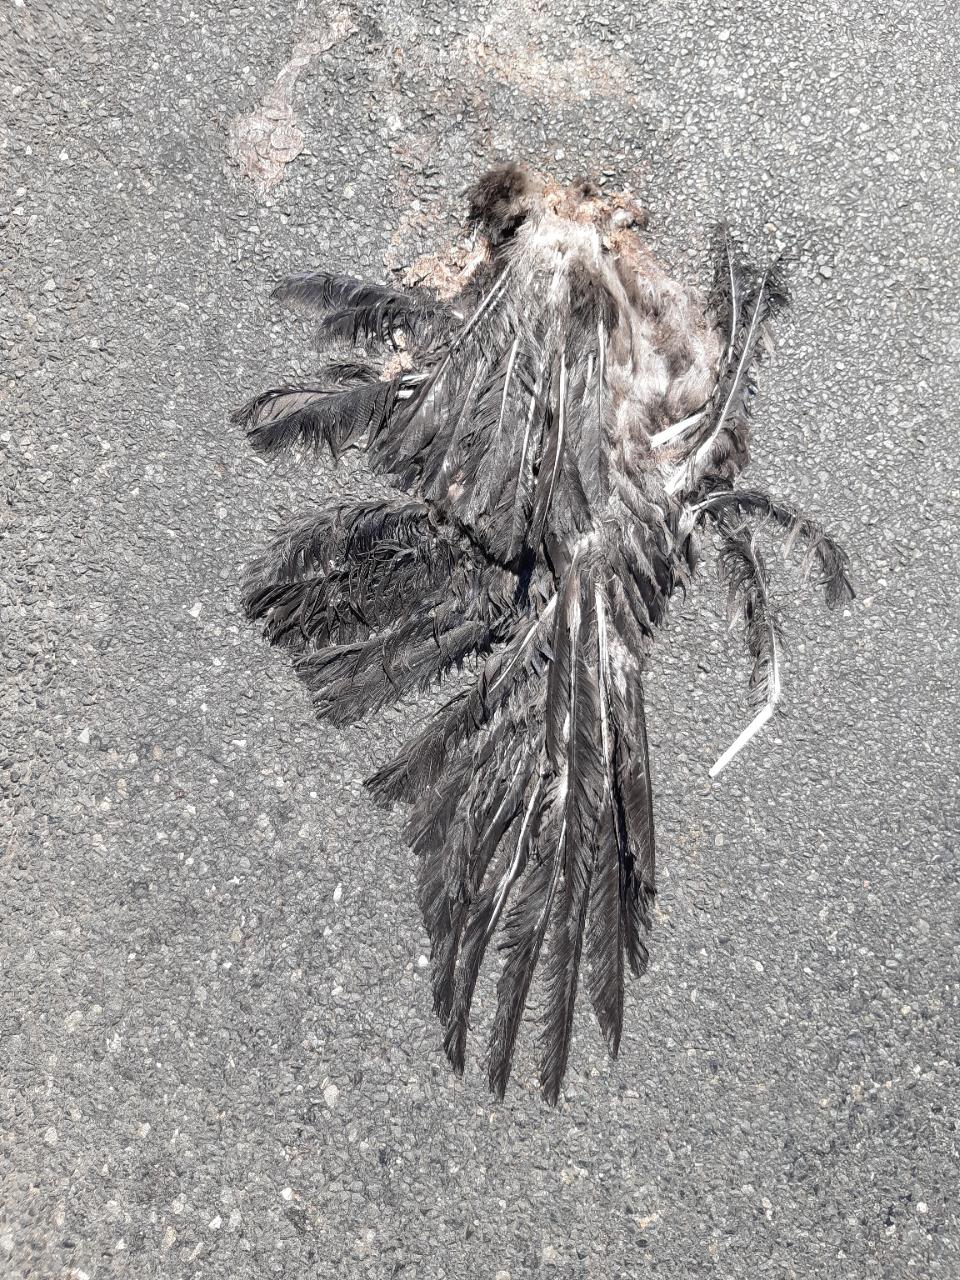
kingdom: Animalia
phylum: Chordata
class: Aves
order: Passeriformes
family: Corvidae
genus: Corvus
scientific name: Corvus corone
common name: Carrion crow
